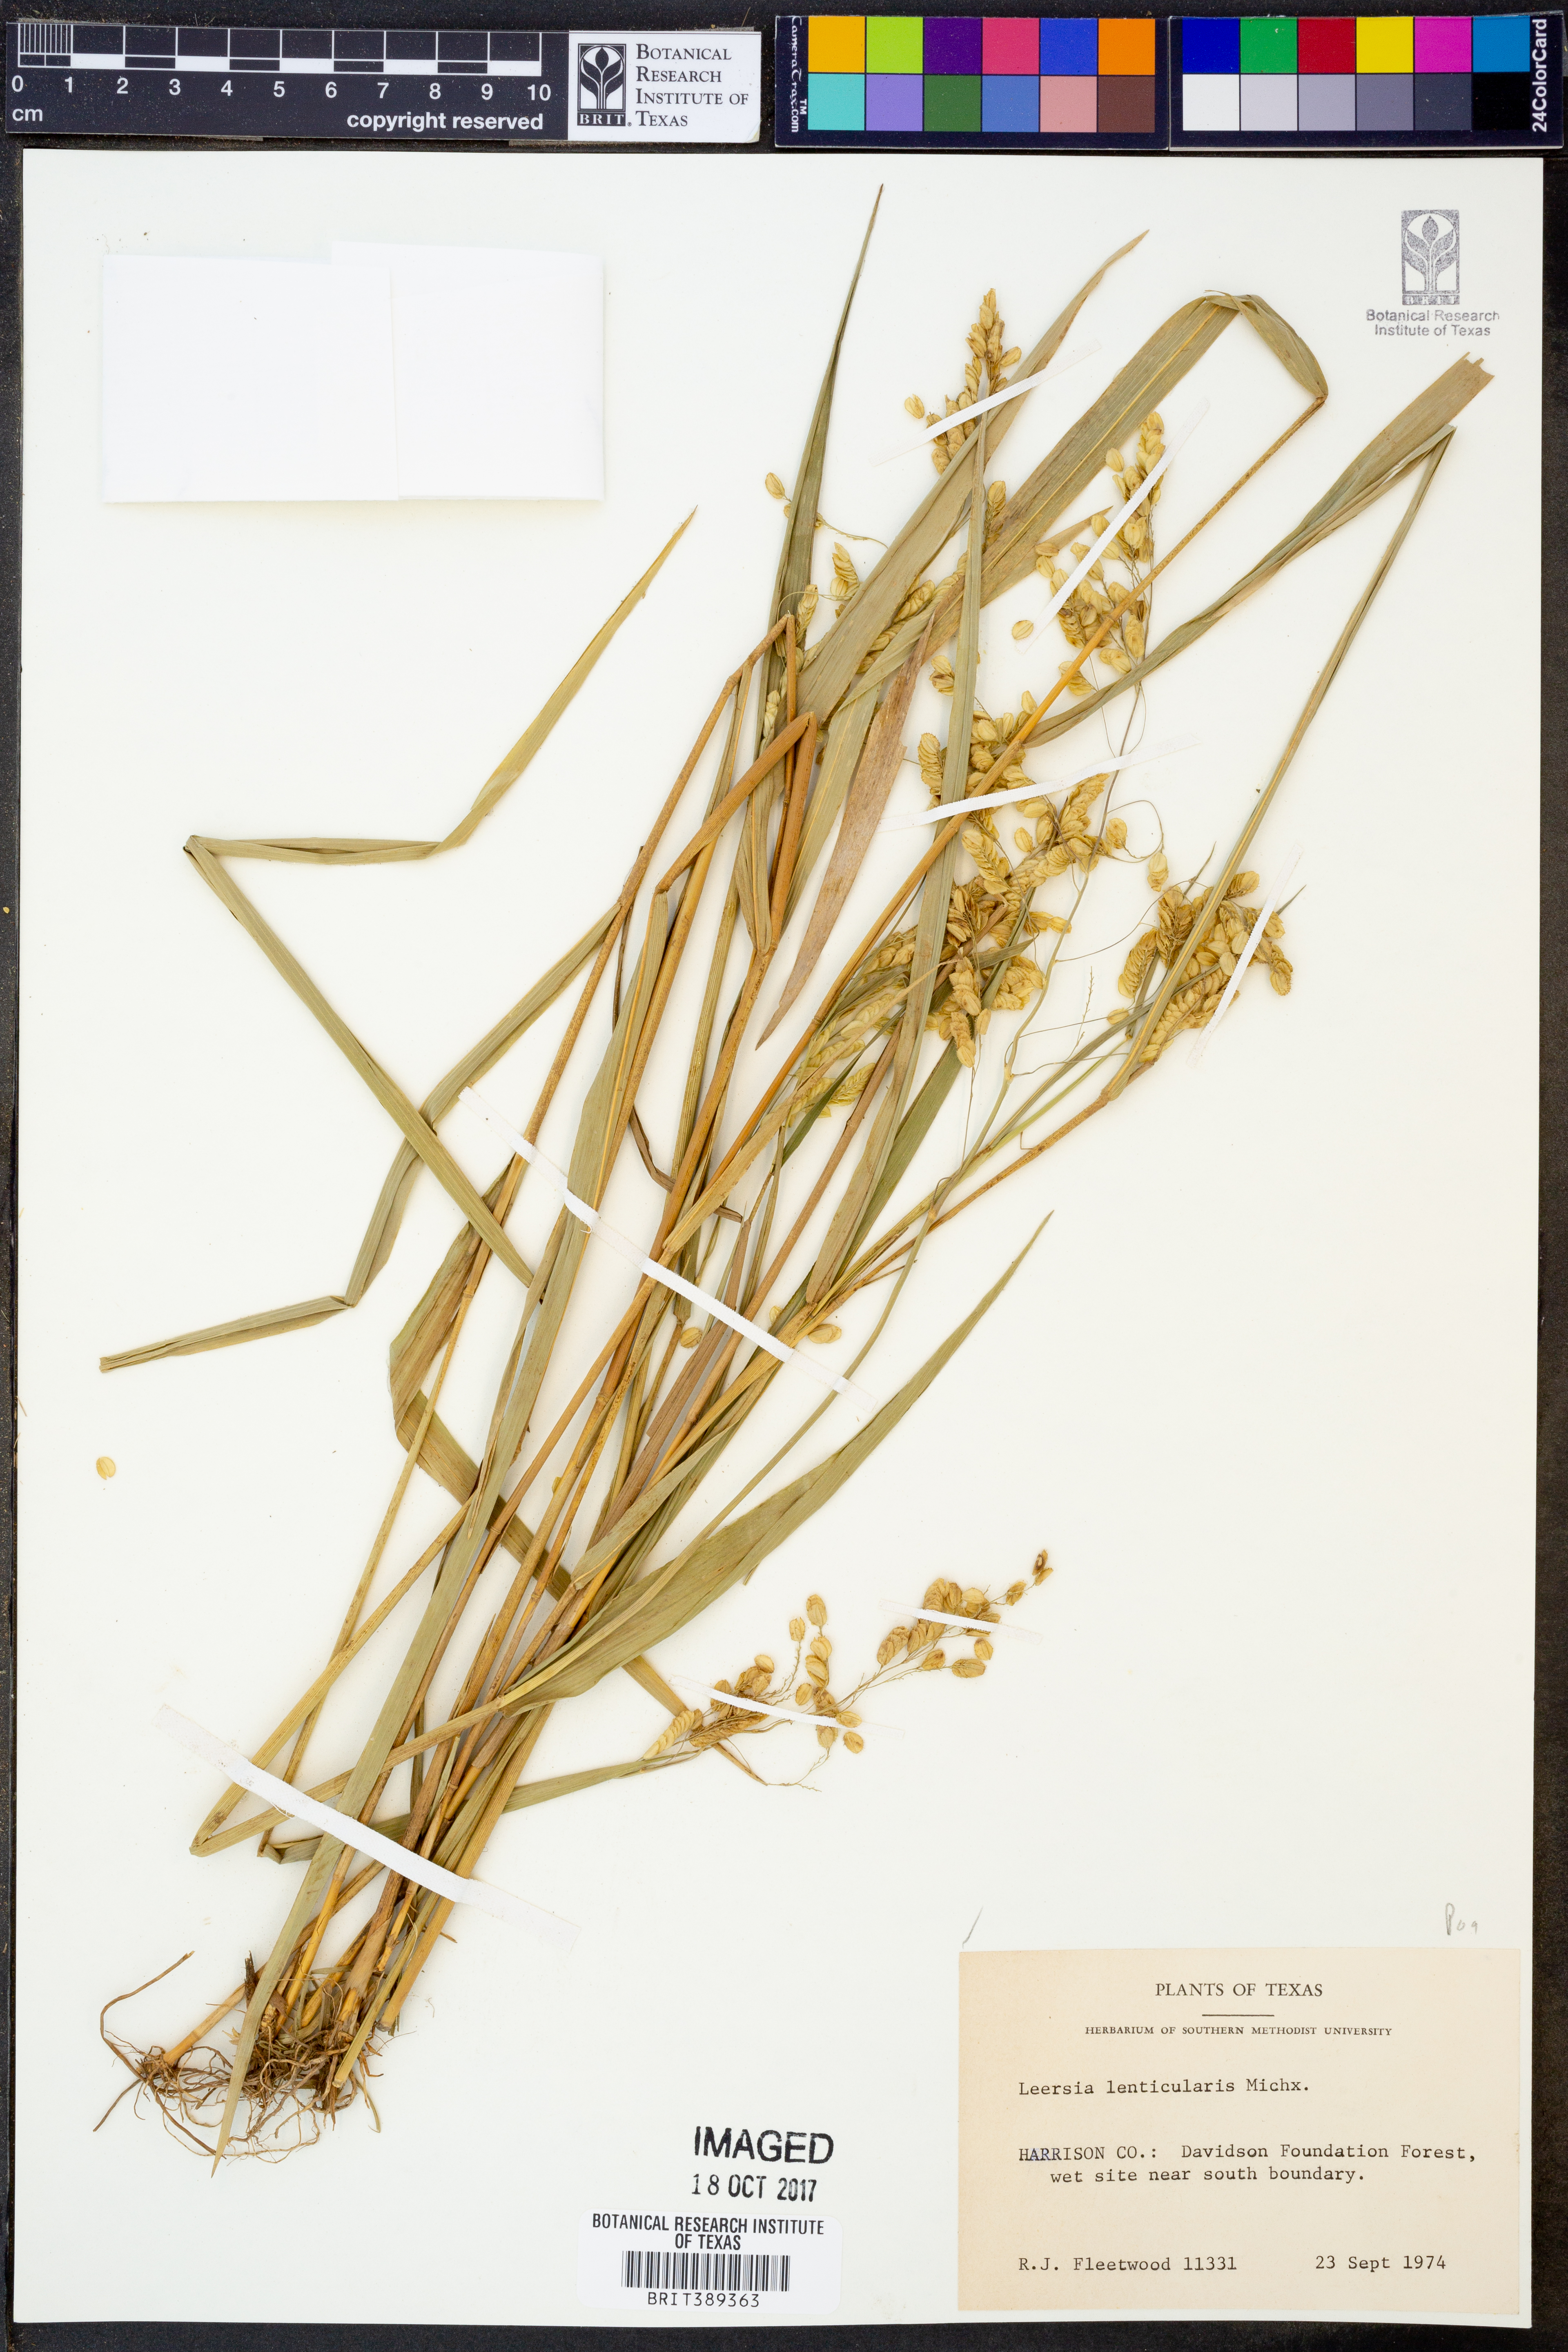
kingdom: Plantae
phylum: Tracheophyta
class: Liliopsida
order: Poales
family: Poaceae
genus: Leersia
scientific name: Leersia lenticularis
